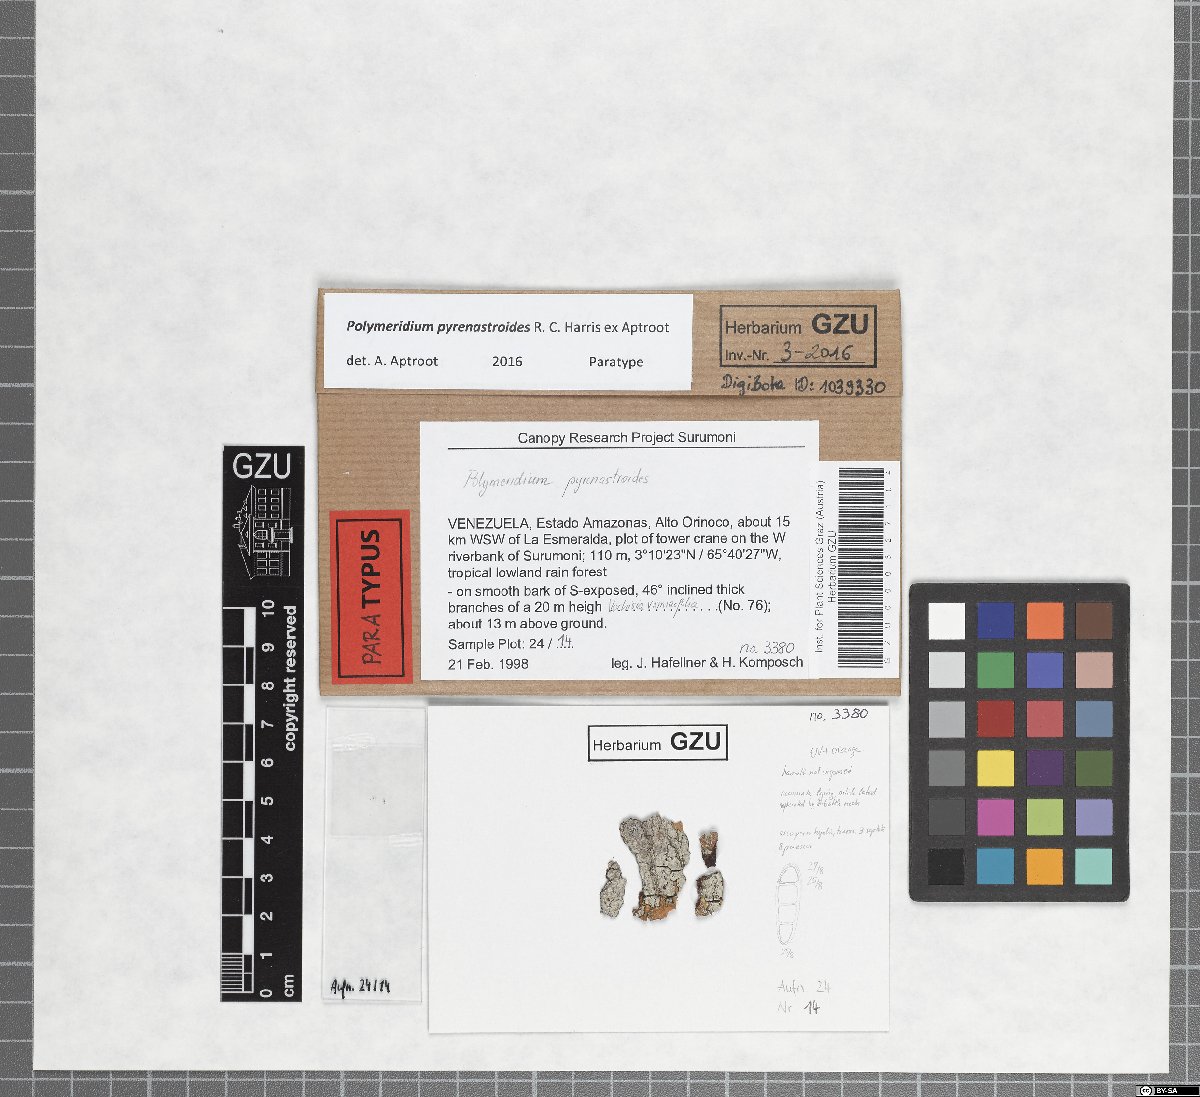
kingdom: Fungi
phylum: Ascomycota
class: Dothideomycetes
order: Trypetheliales
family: Trypetheliaceae
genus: Polymeridium
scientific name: Polymeridium pyrenastroides
